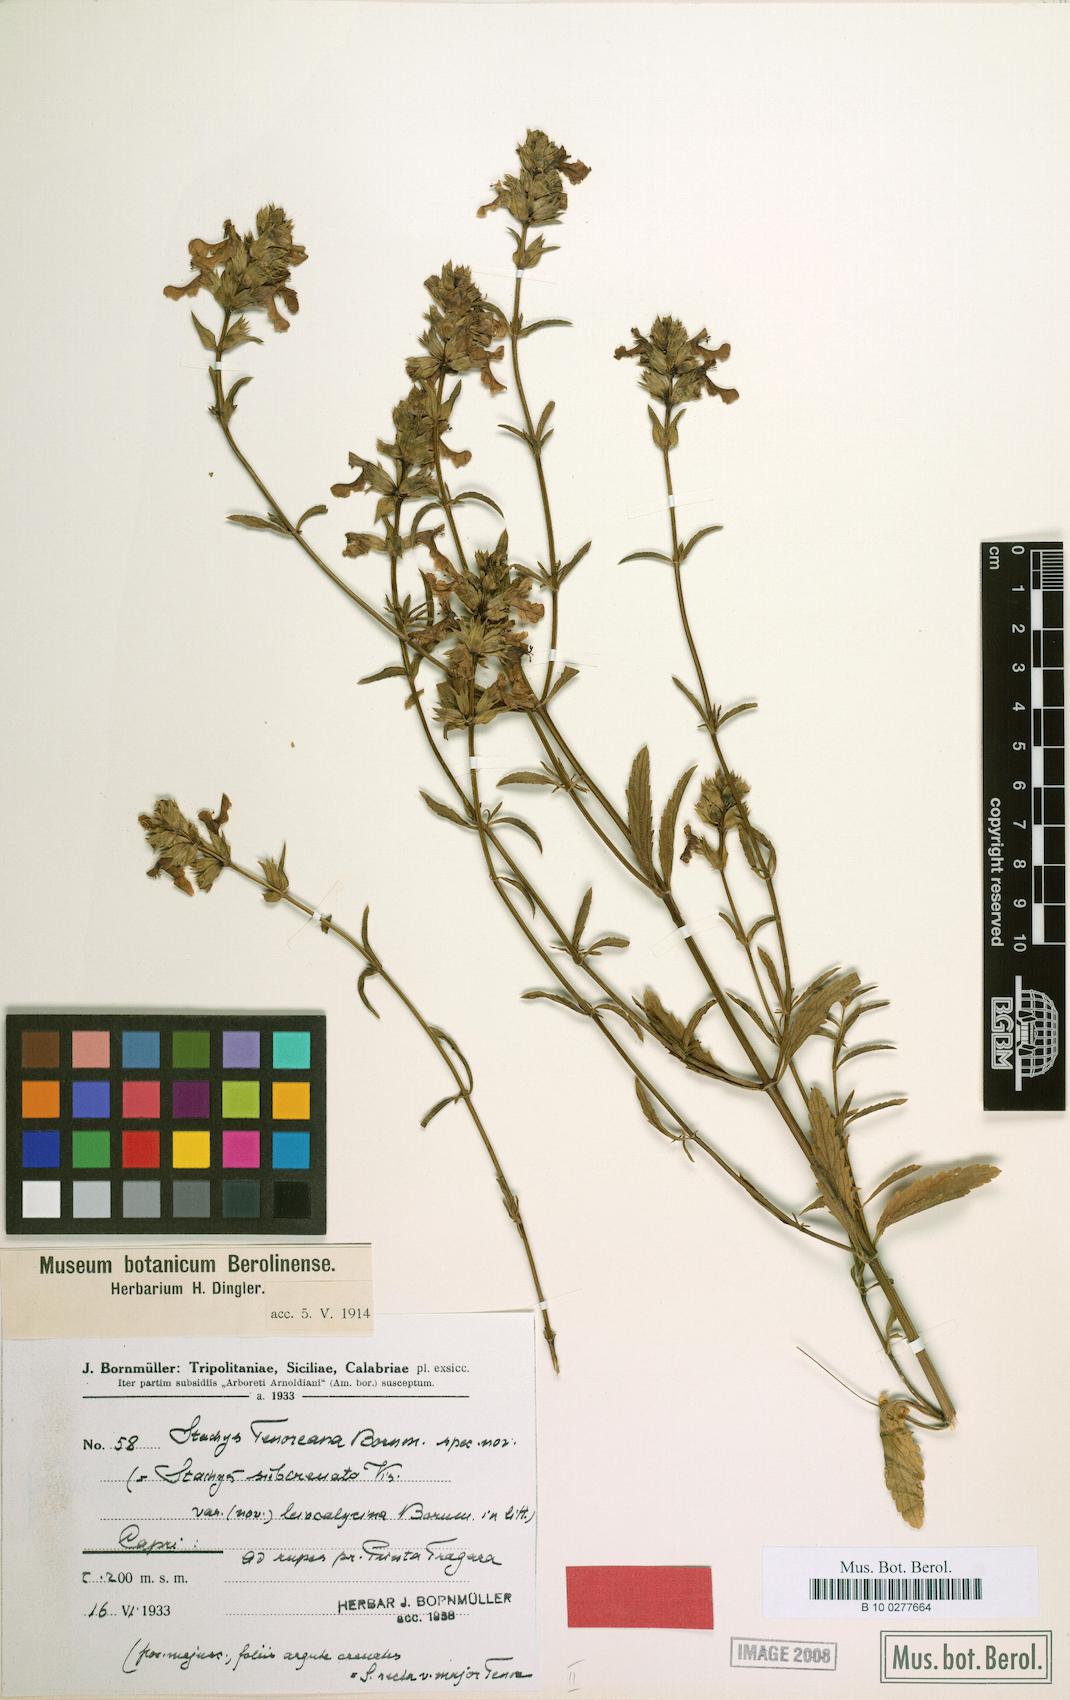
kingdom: Plantae
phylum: Tracheophyta
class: Magnoliopsida
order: Lamiales
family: Lamiaceae
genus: Stachys
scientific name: Stachys recta
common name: Perennial yellow-woundwort
